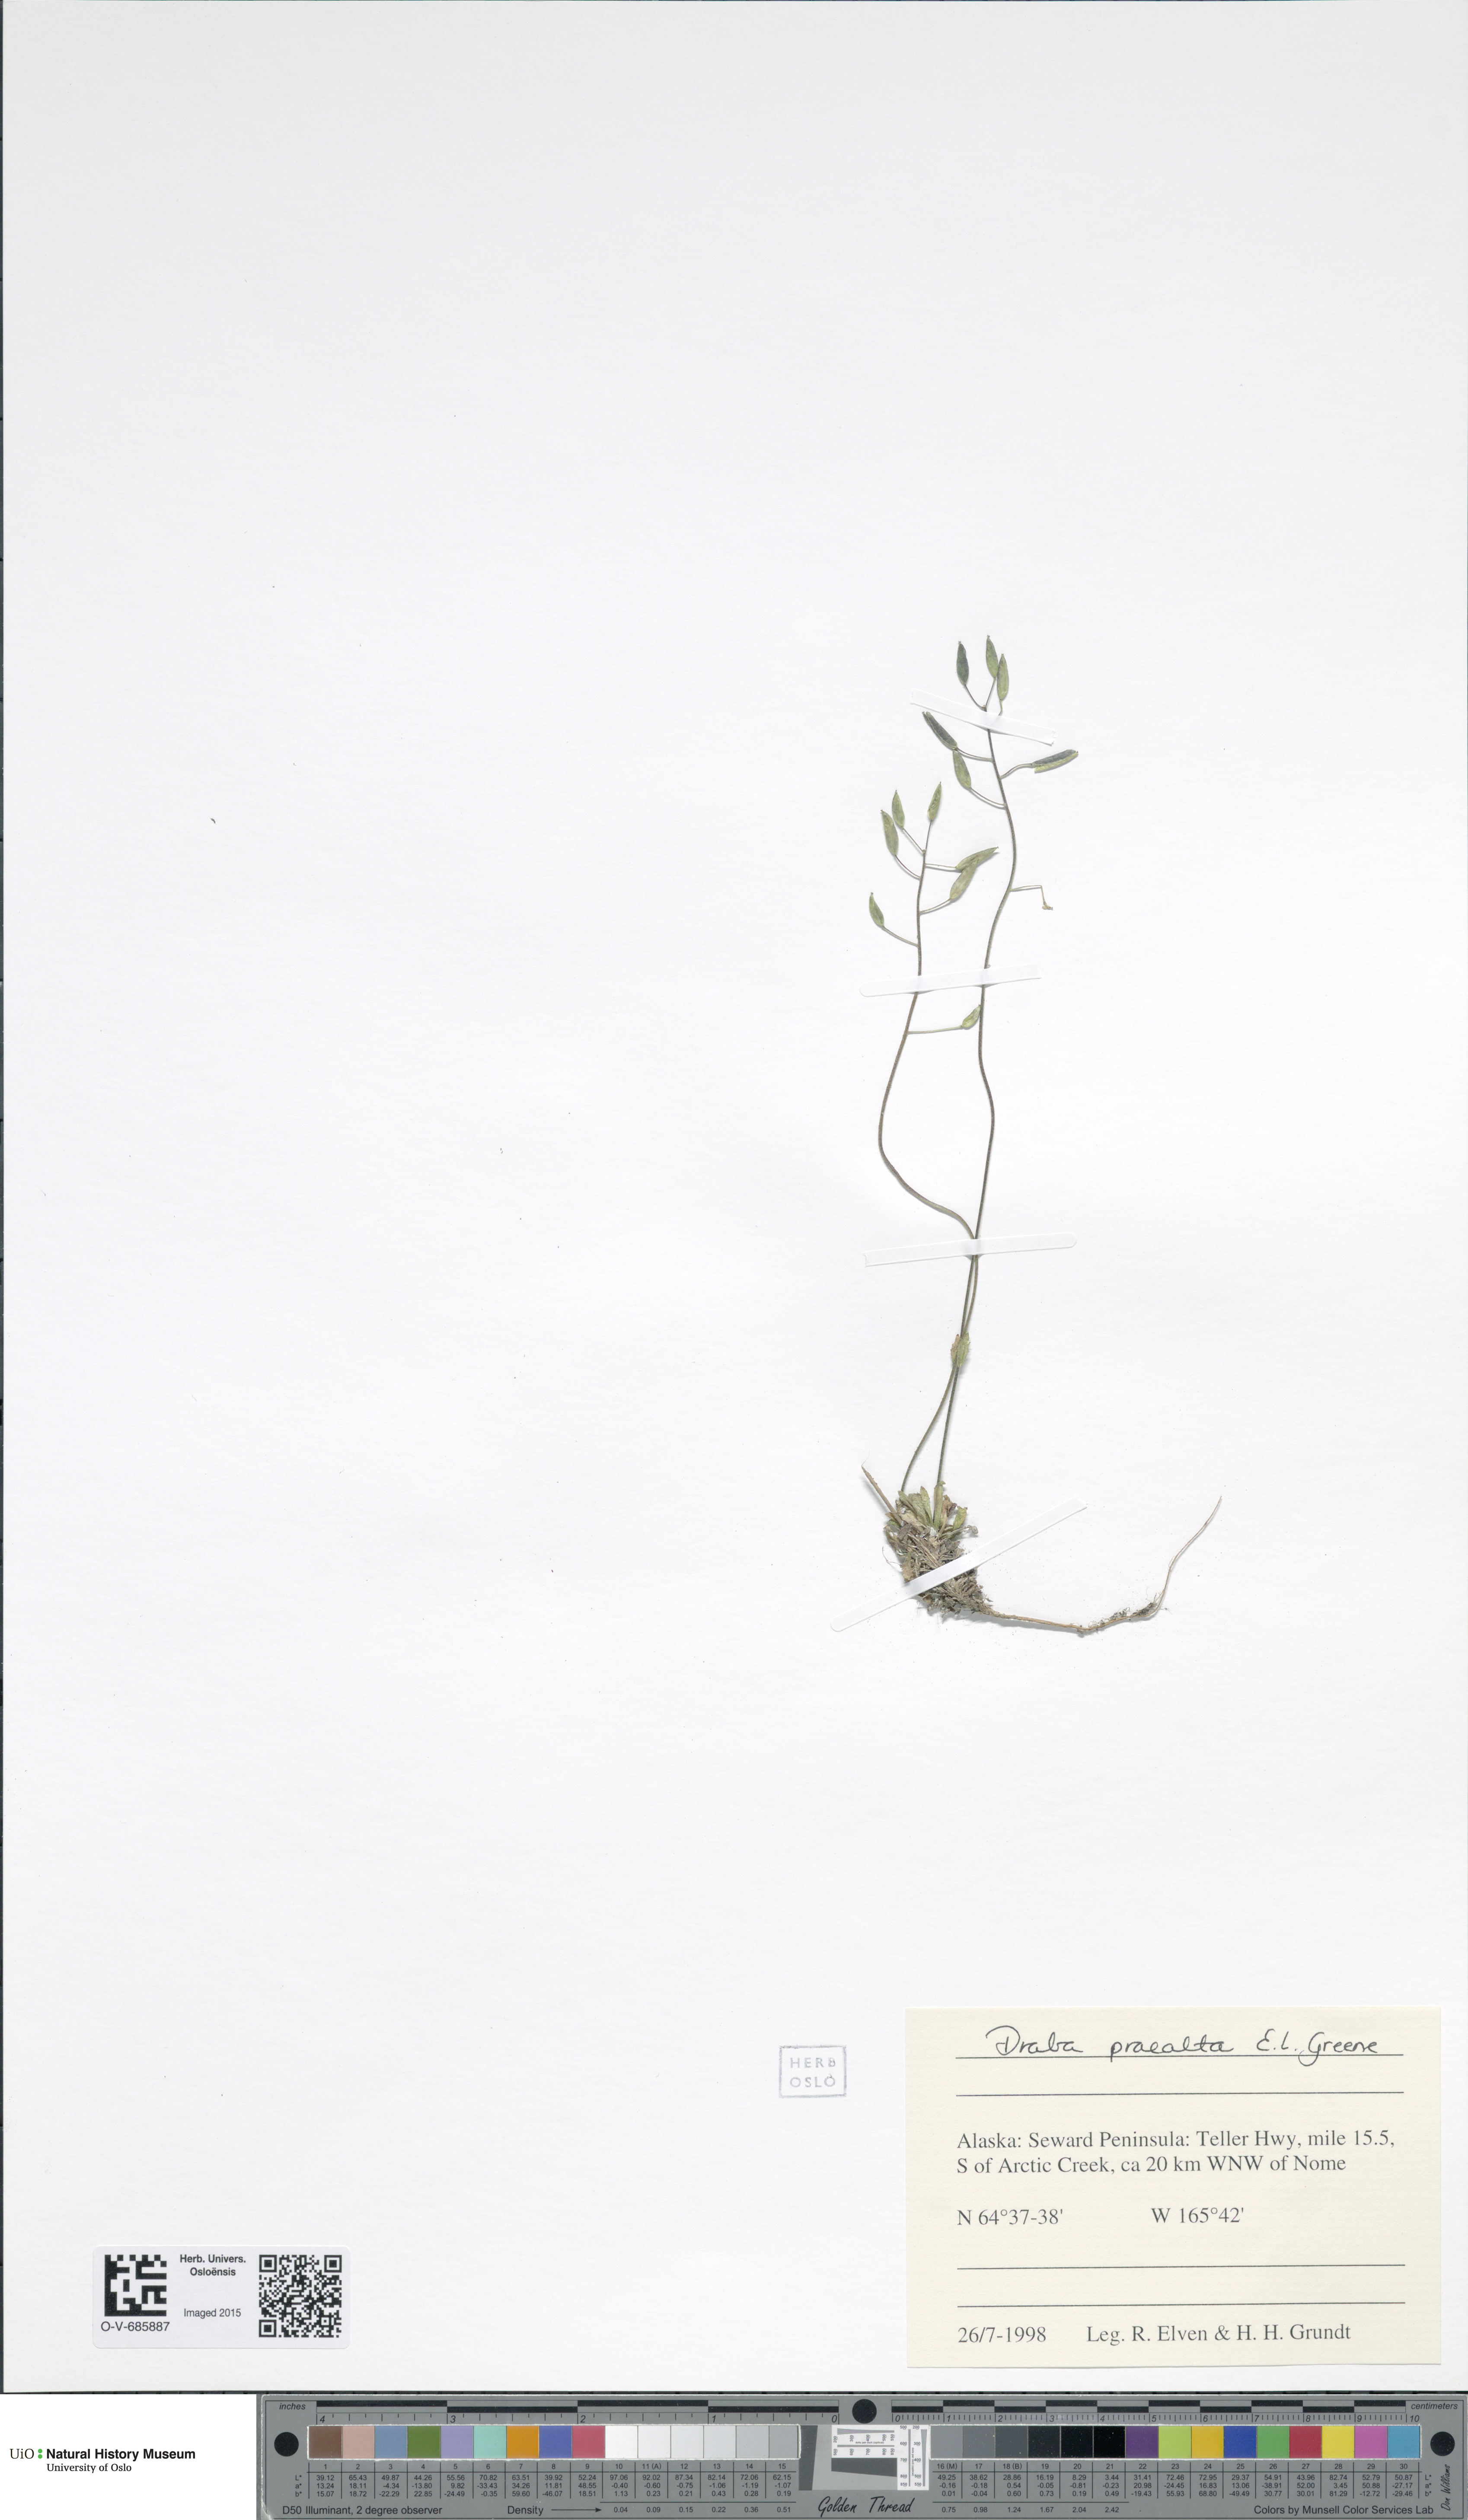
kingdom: Plantae
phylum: Tracheophyta
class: Magnoliopsida
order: Brassicales
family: Brassicaceae
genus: Draba
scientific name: Draba praealta
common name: Tall draba
